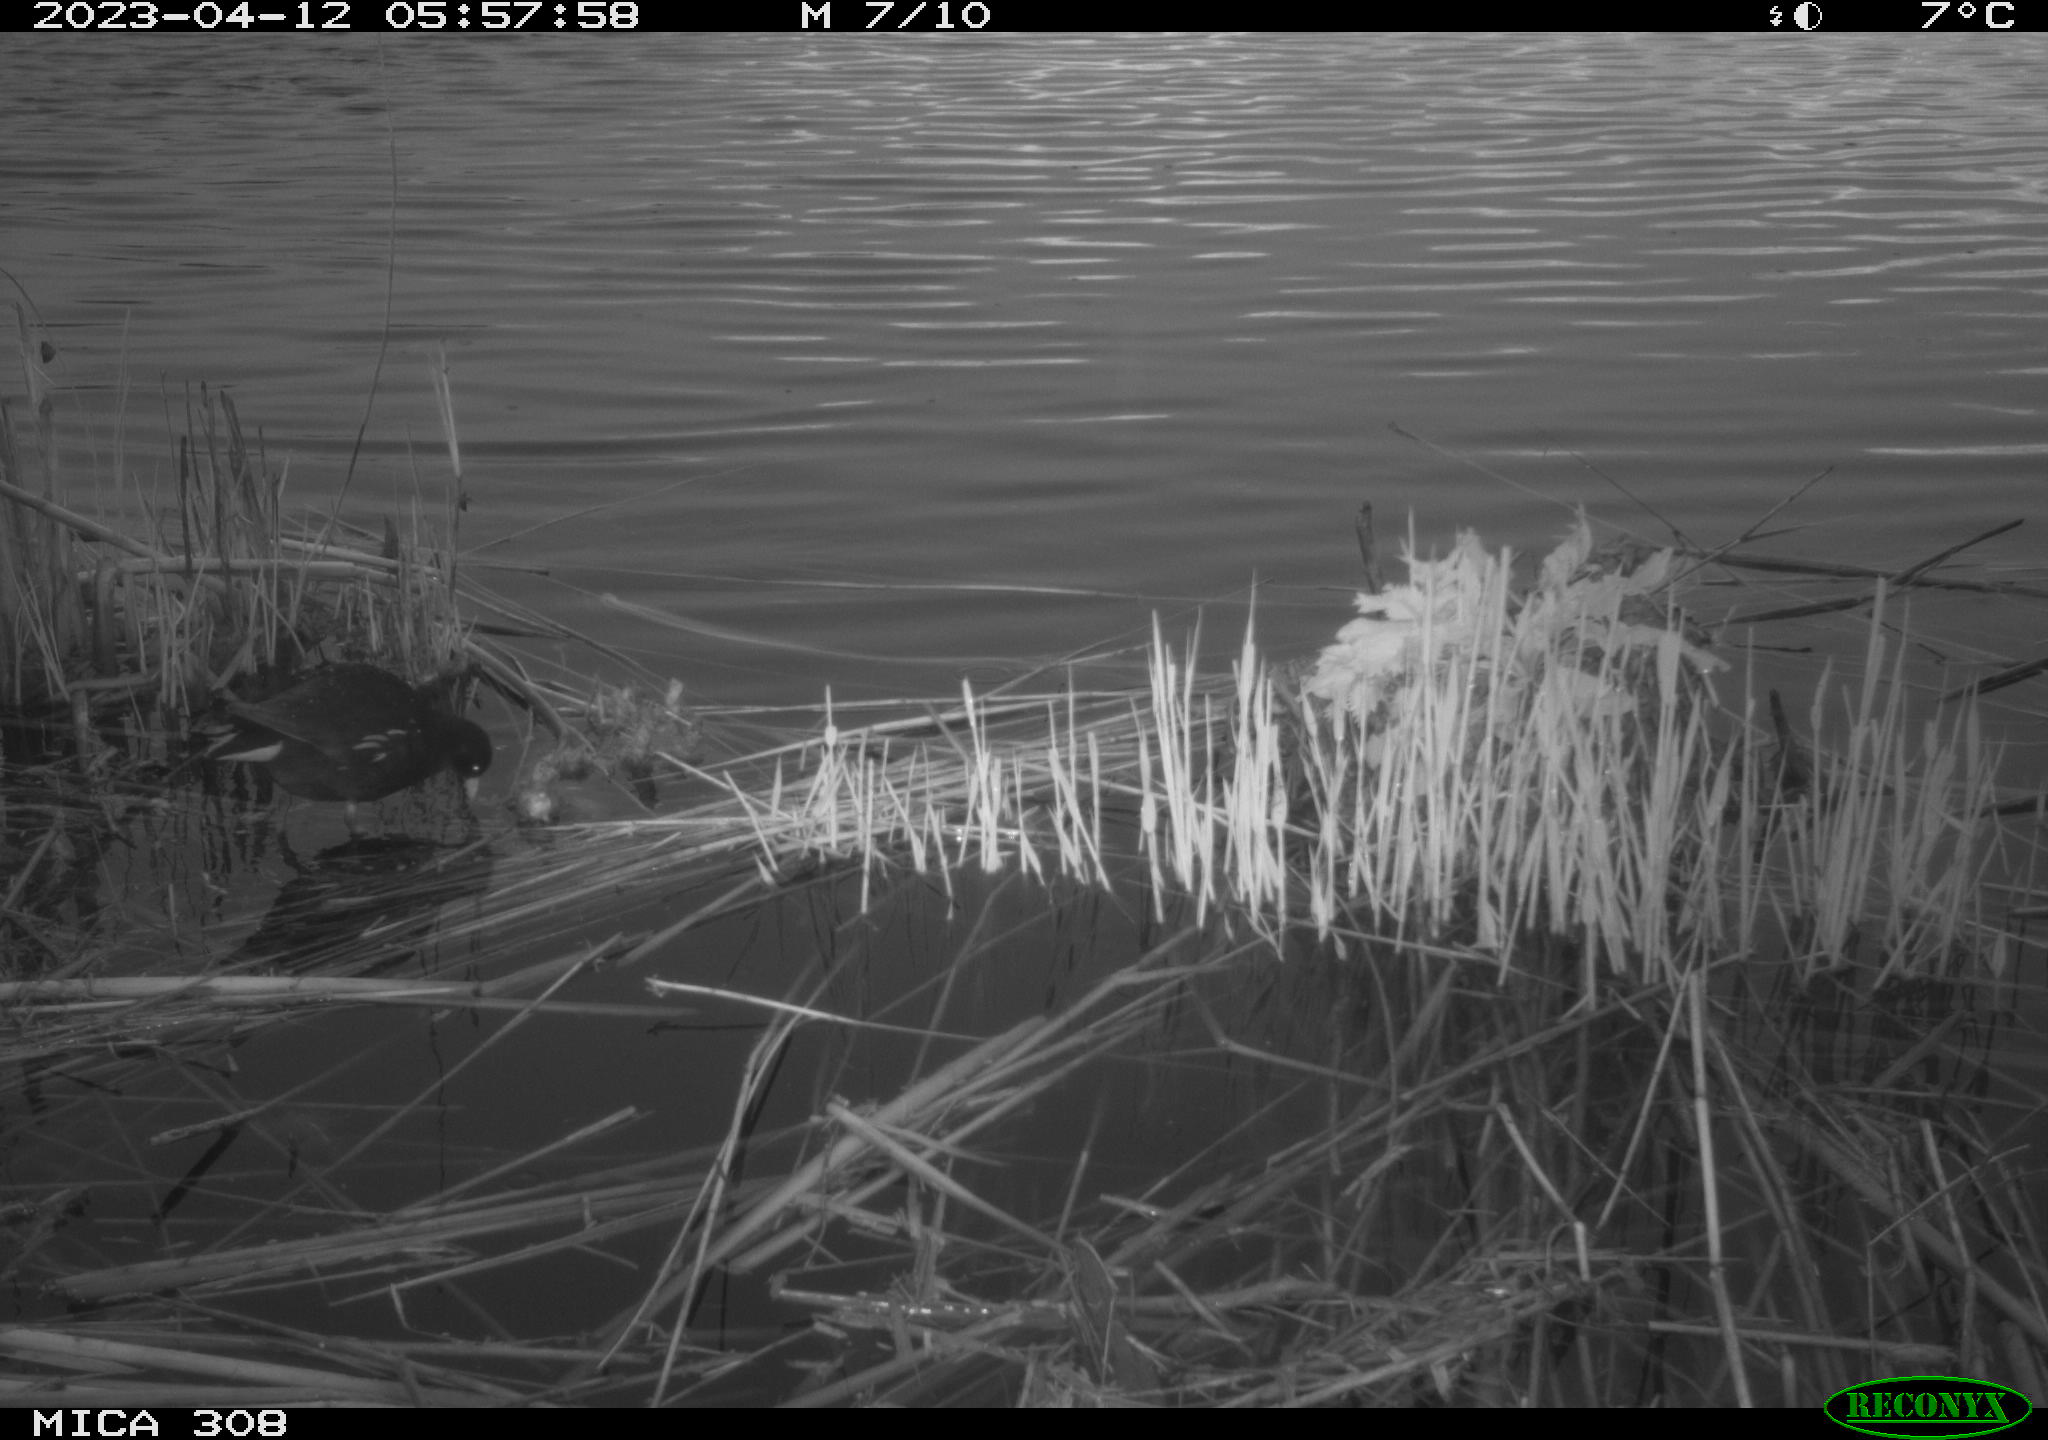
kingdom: Animalia
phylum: Chordata
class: Aves
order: Gruiformes
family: Rallidae
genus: Gallinula
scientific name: Gallinula chloropus
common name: Common moorhen
